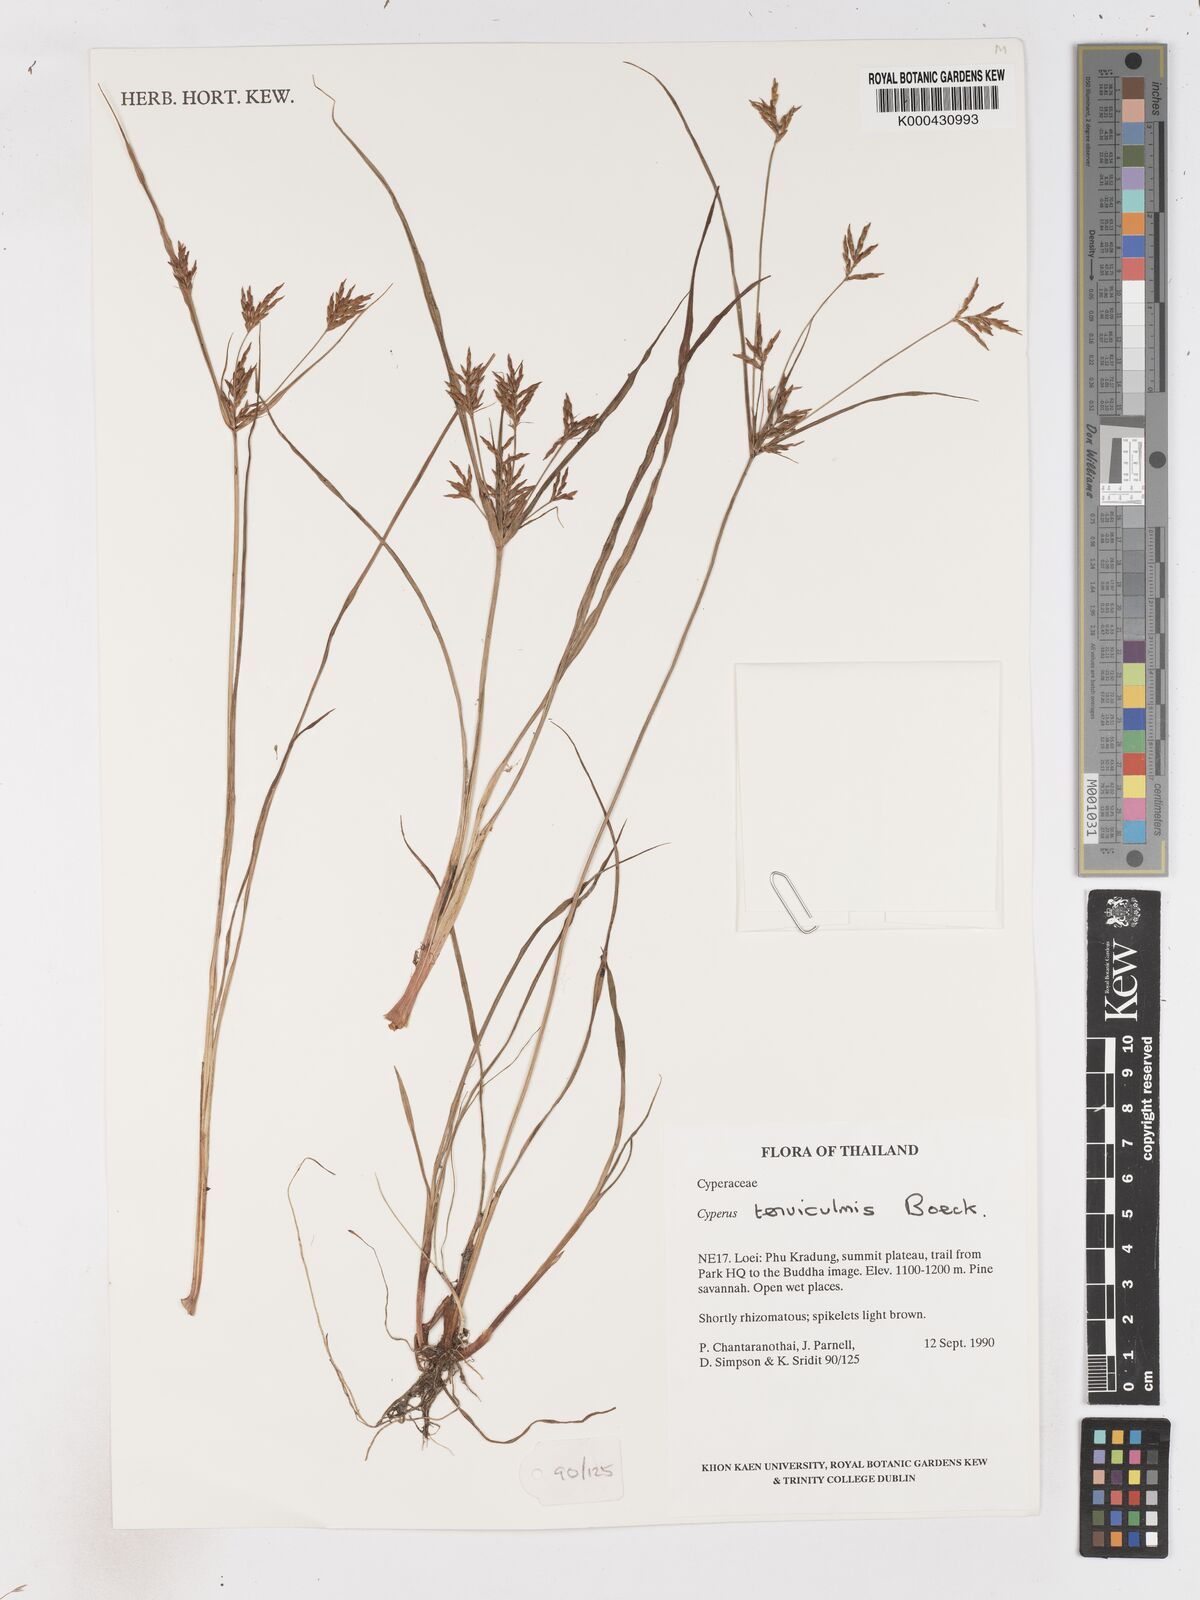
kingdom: Plantae
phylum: Tracheophyta
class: Liliopsida
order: Poales
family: Cyperaceae
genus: Cyperus
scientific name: Cyperus tenuiculmis
